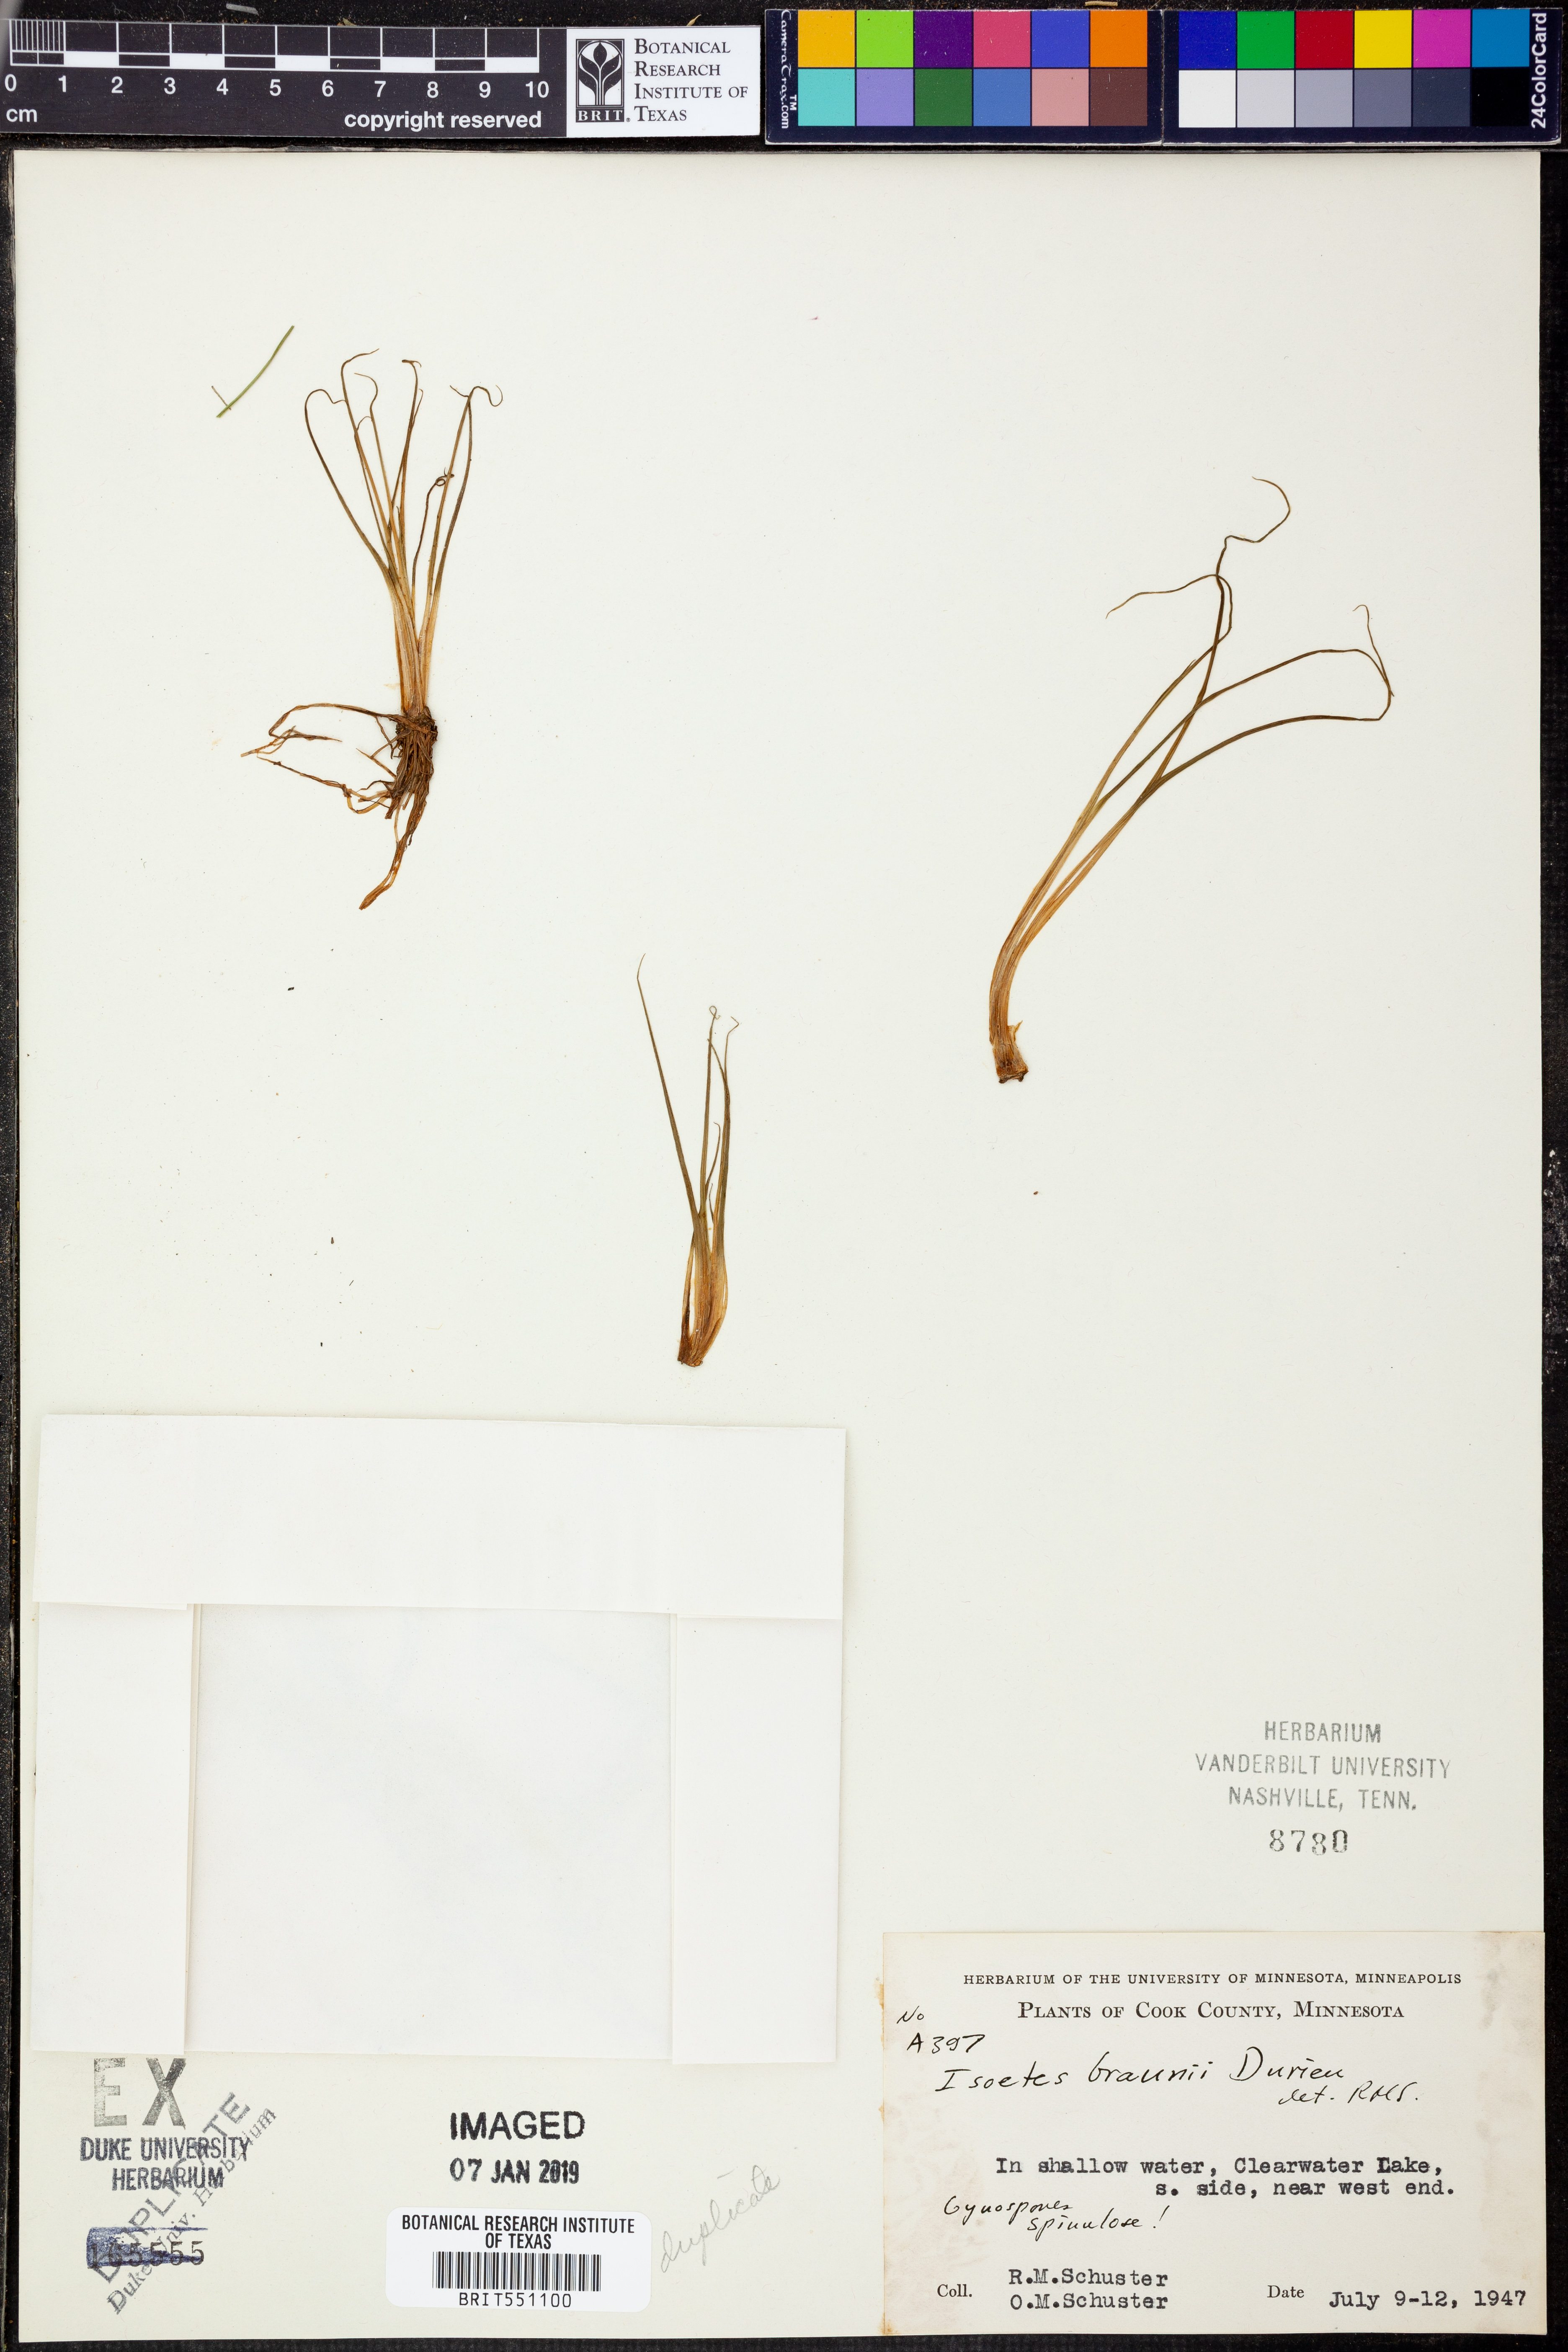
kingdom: Plantae
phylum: Tracheophyta
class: Lycopodiopsida
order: Isoetales
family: Isoetaceae
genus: Isoetes
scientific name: Isoetes echinospora
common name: Spring quillwort
